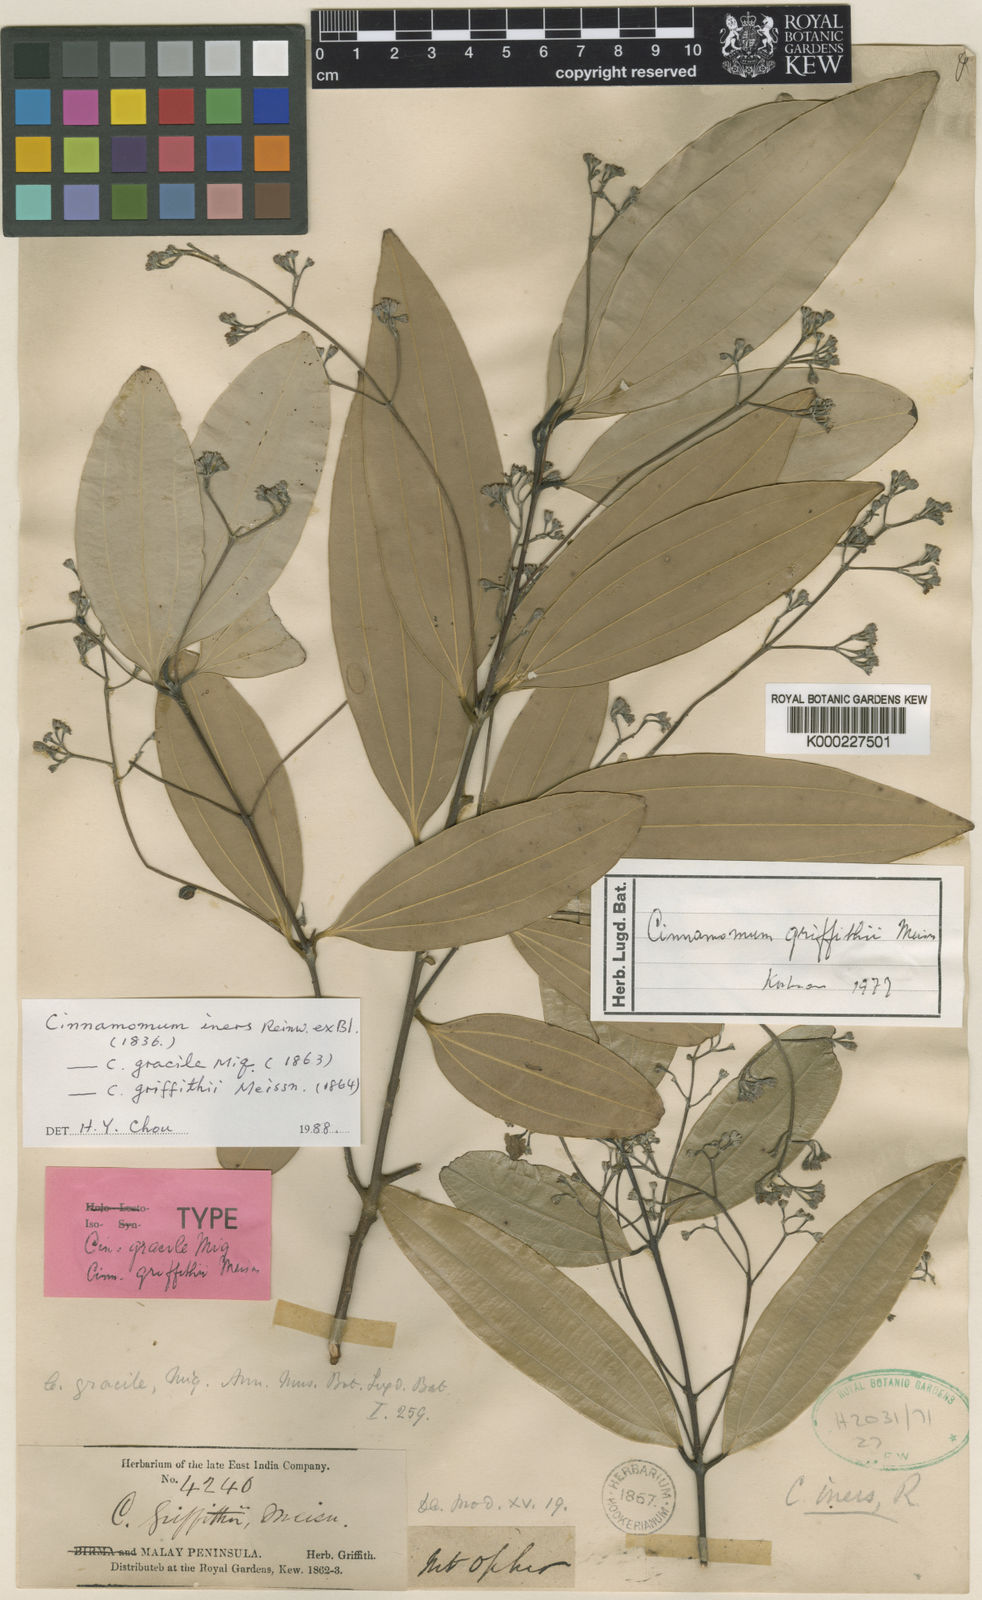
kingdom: Plantae
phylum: Tracheophyta
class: Magnoliopsida
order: Laurales
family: Lauraceae
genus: Cinnamomum
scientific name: Cinnamomum iners
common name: Wild cinnamon
